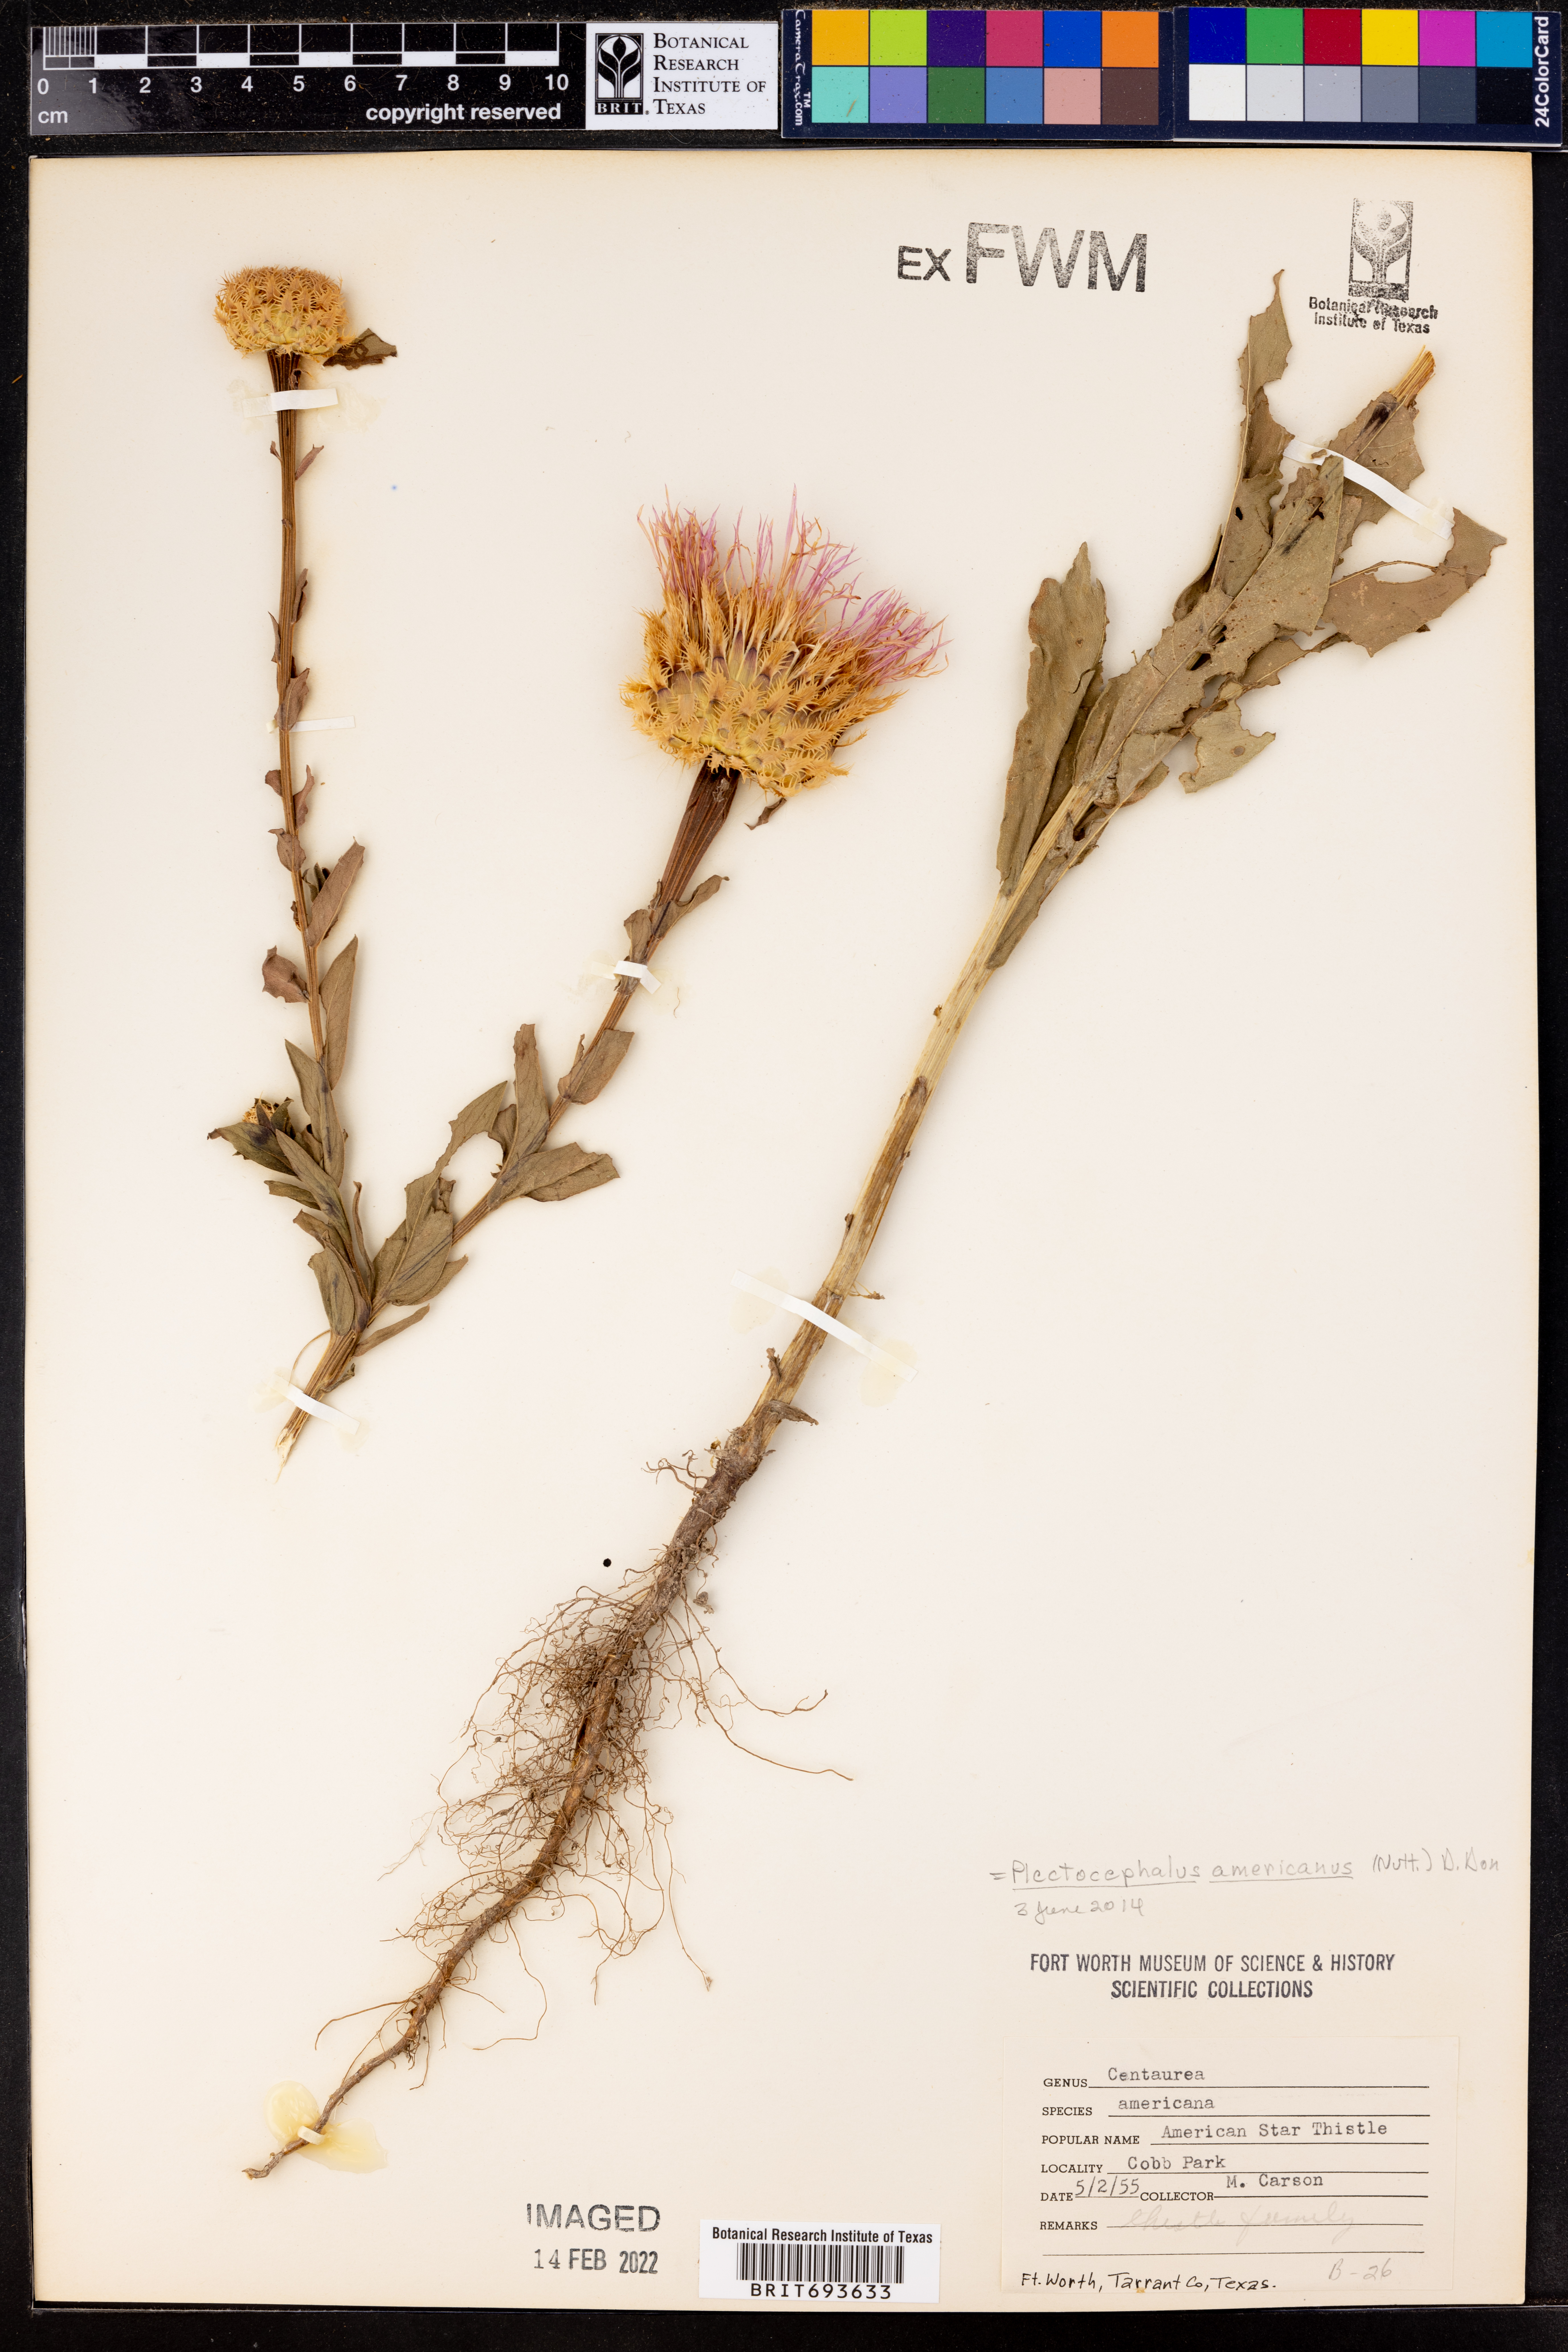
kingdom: Plantae
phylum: Tracheophyta
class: Magnoliopsida
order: Asterales
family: Asteraceae
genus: Plectocephalus
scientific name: Plectocephalus americanus
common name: American basket-flower
